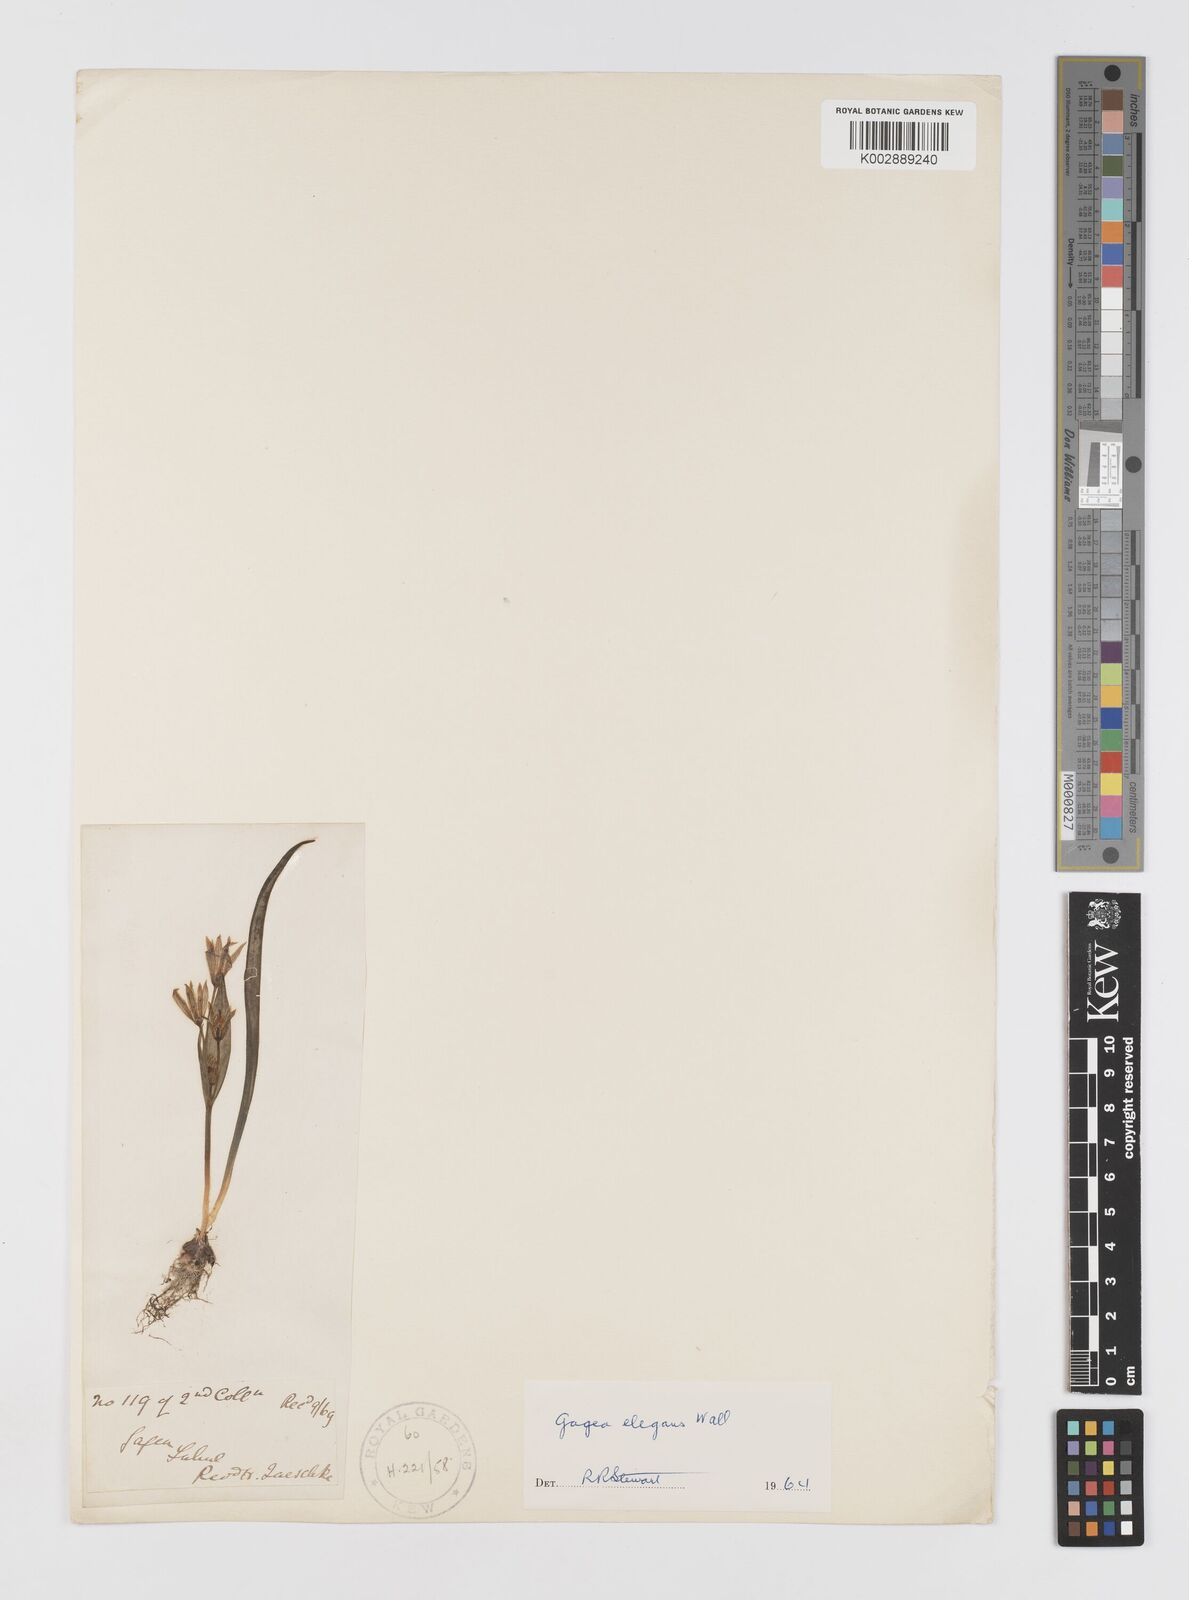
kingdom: Plantae
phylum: Tracheophyta
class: Liliopsida
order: Liliales
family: Liliaceae
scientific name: Liliaceae
